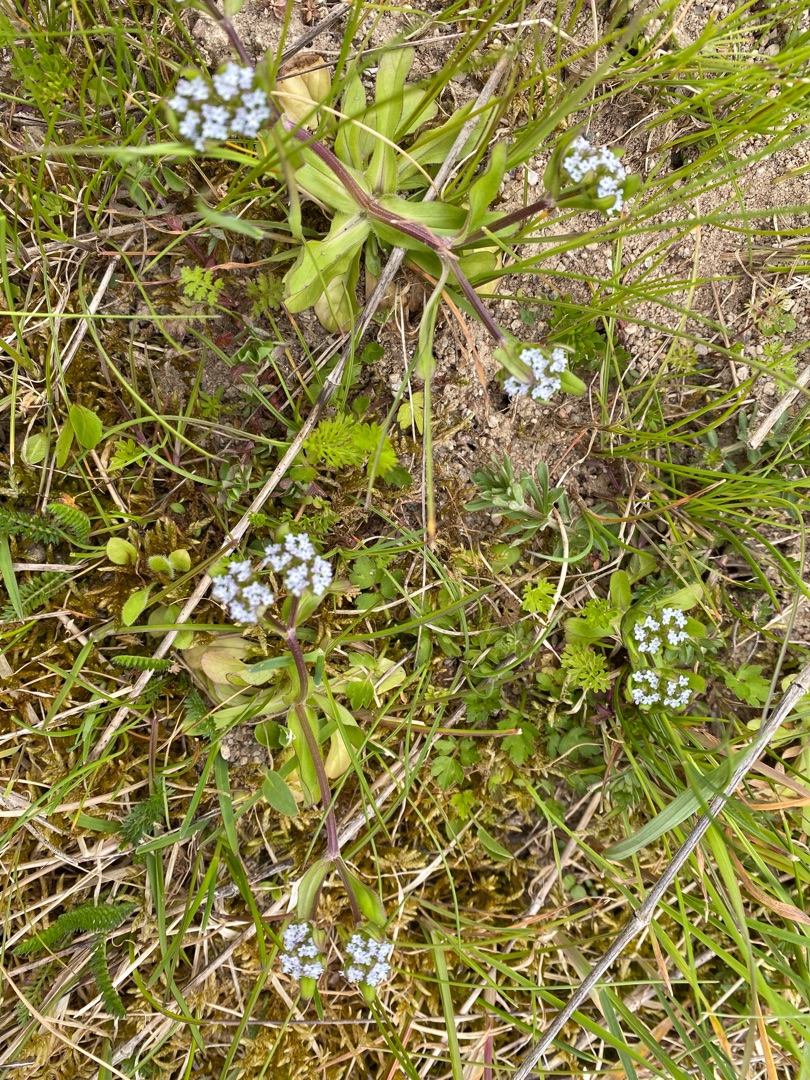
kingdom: Plantae
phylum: Tracheophyta
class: Magnoliopsida
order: Dipsacales
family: Caprifoliaceae
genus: Valerianella
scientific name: Valerianella locusta
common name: Tandfri vårsalat
